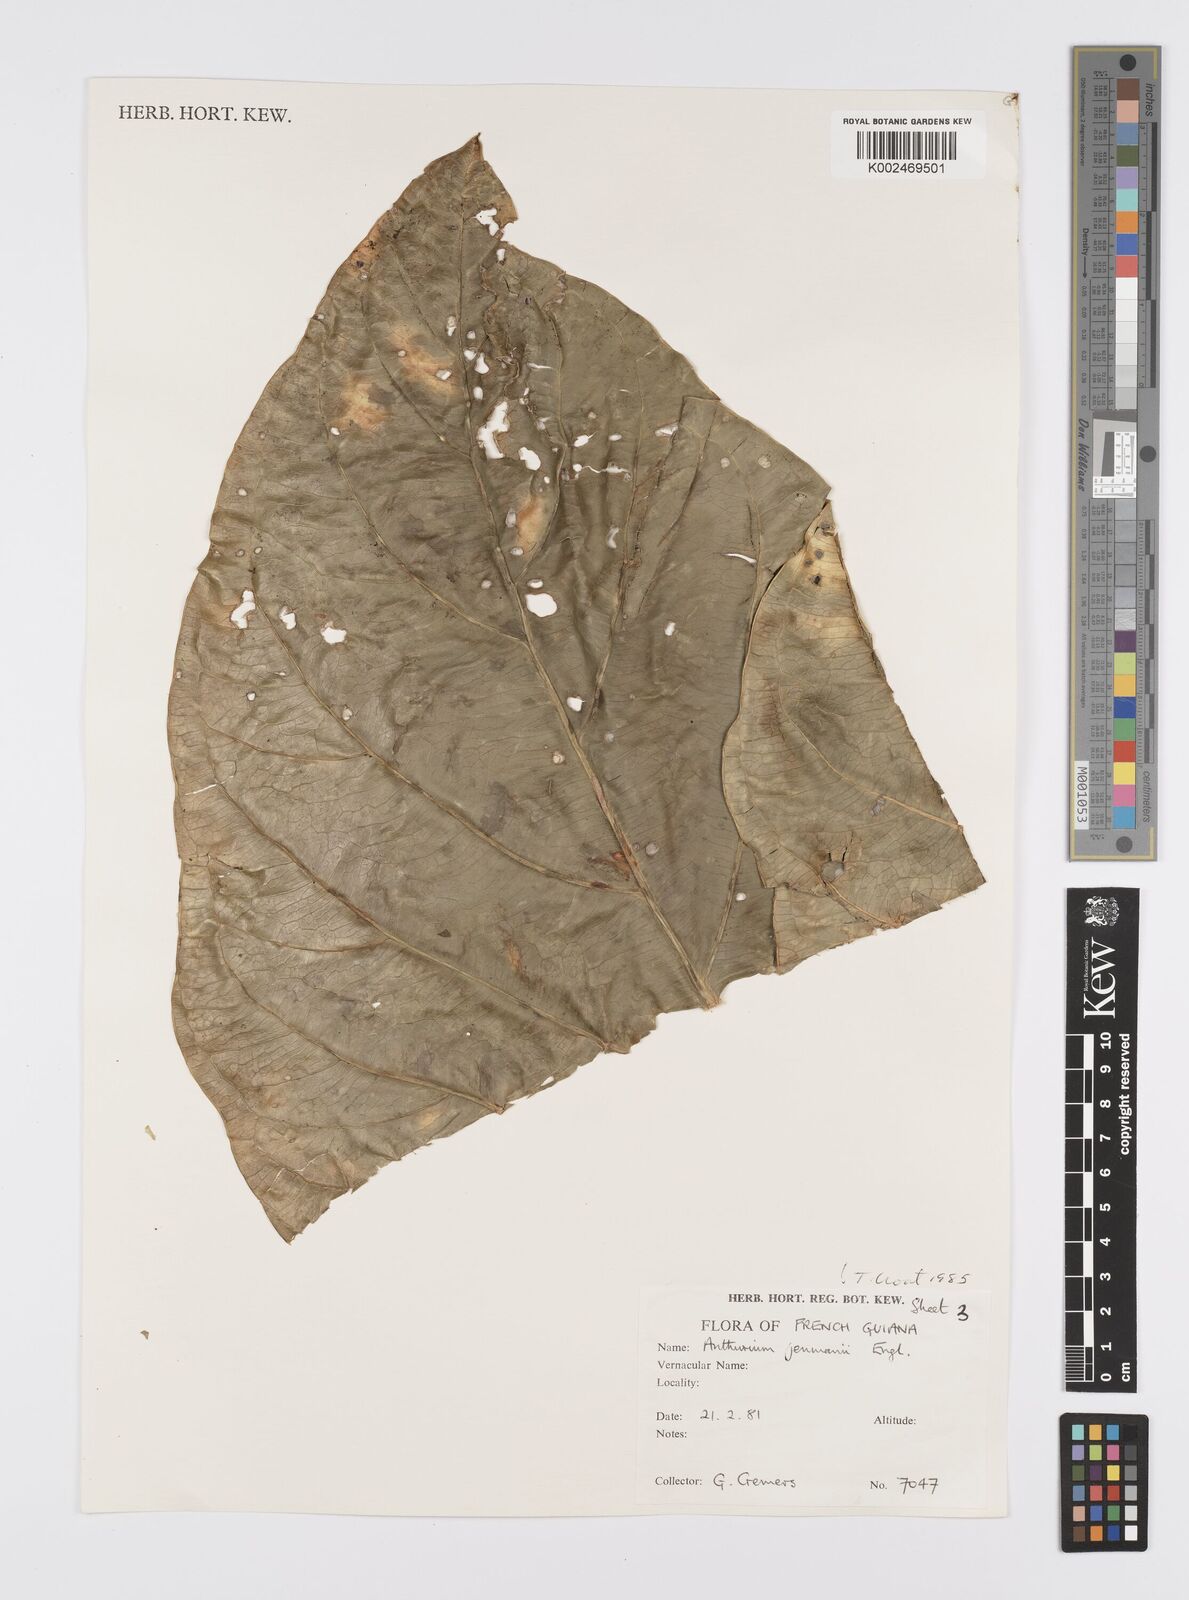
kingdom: Plantae
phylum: Tracheophyta
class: Liliopsida
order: Alismatales
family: Araceae
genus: Anthurium
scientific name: Anthurium jenmanii
